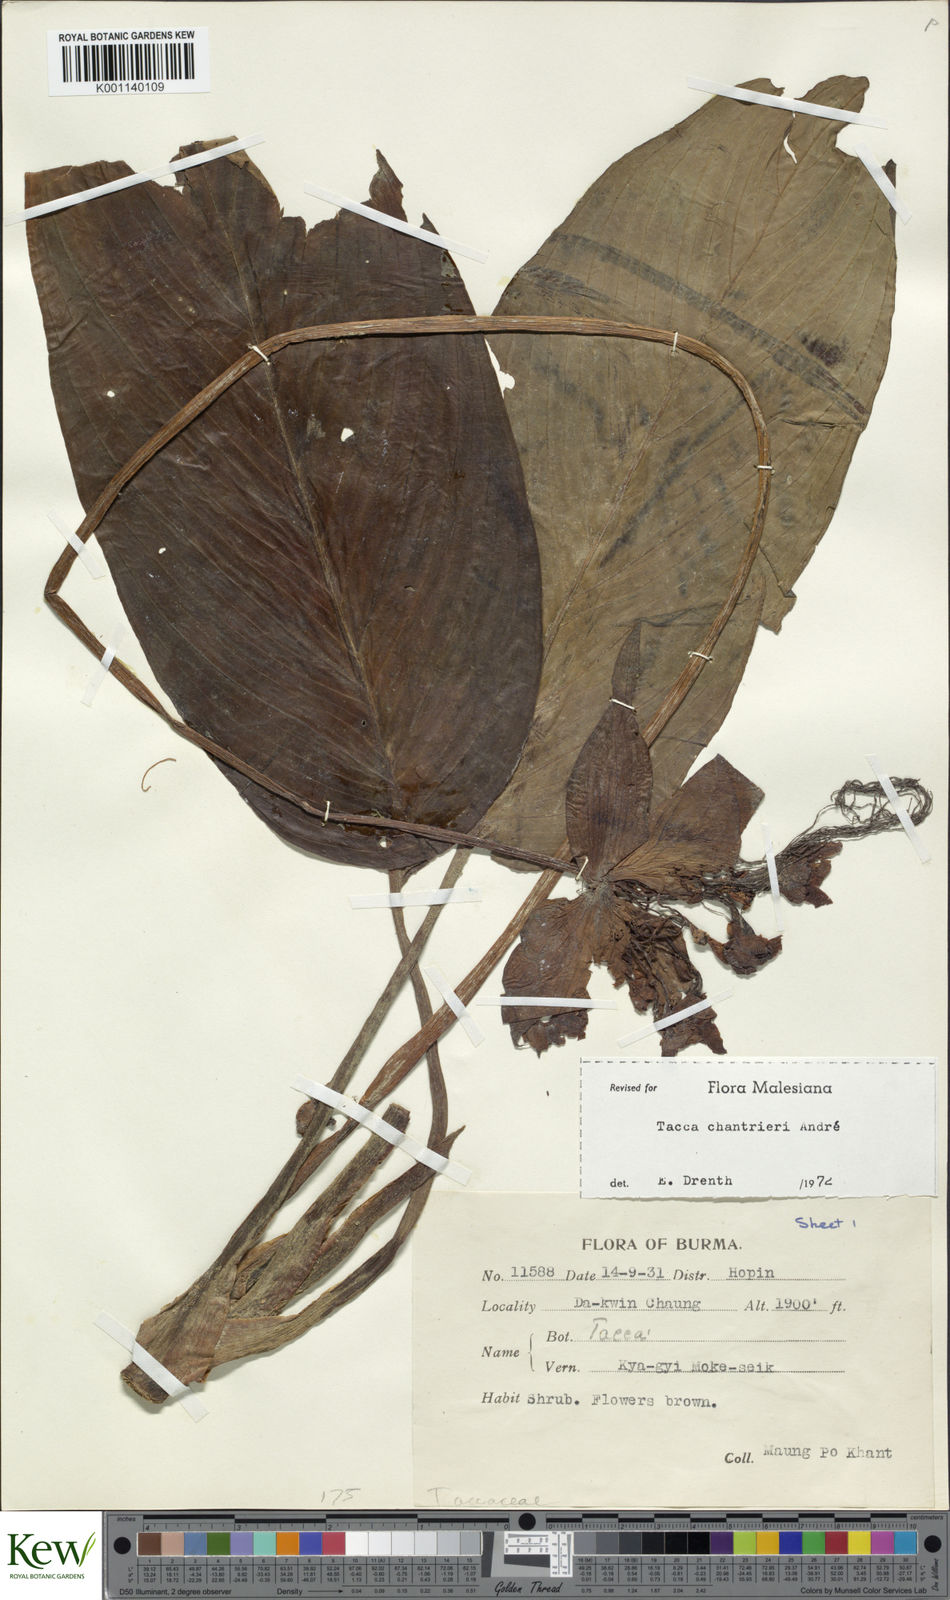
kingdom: Plantae
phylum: Tracheophyta
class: Liliopsida
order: Dioscoreales
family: Dioscoreaceae
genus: Tacca
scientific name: Tacca
